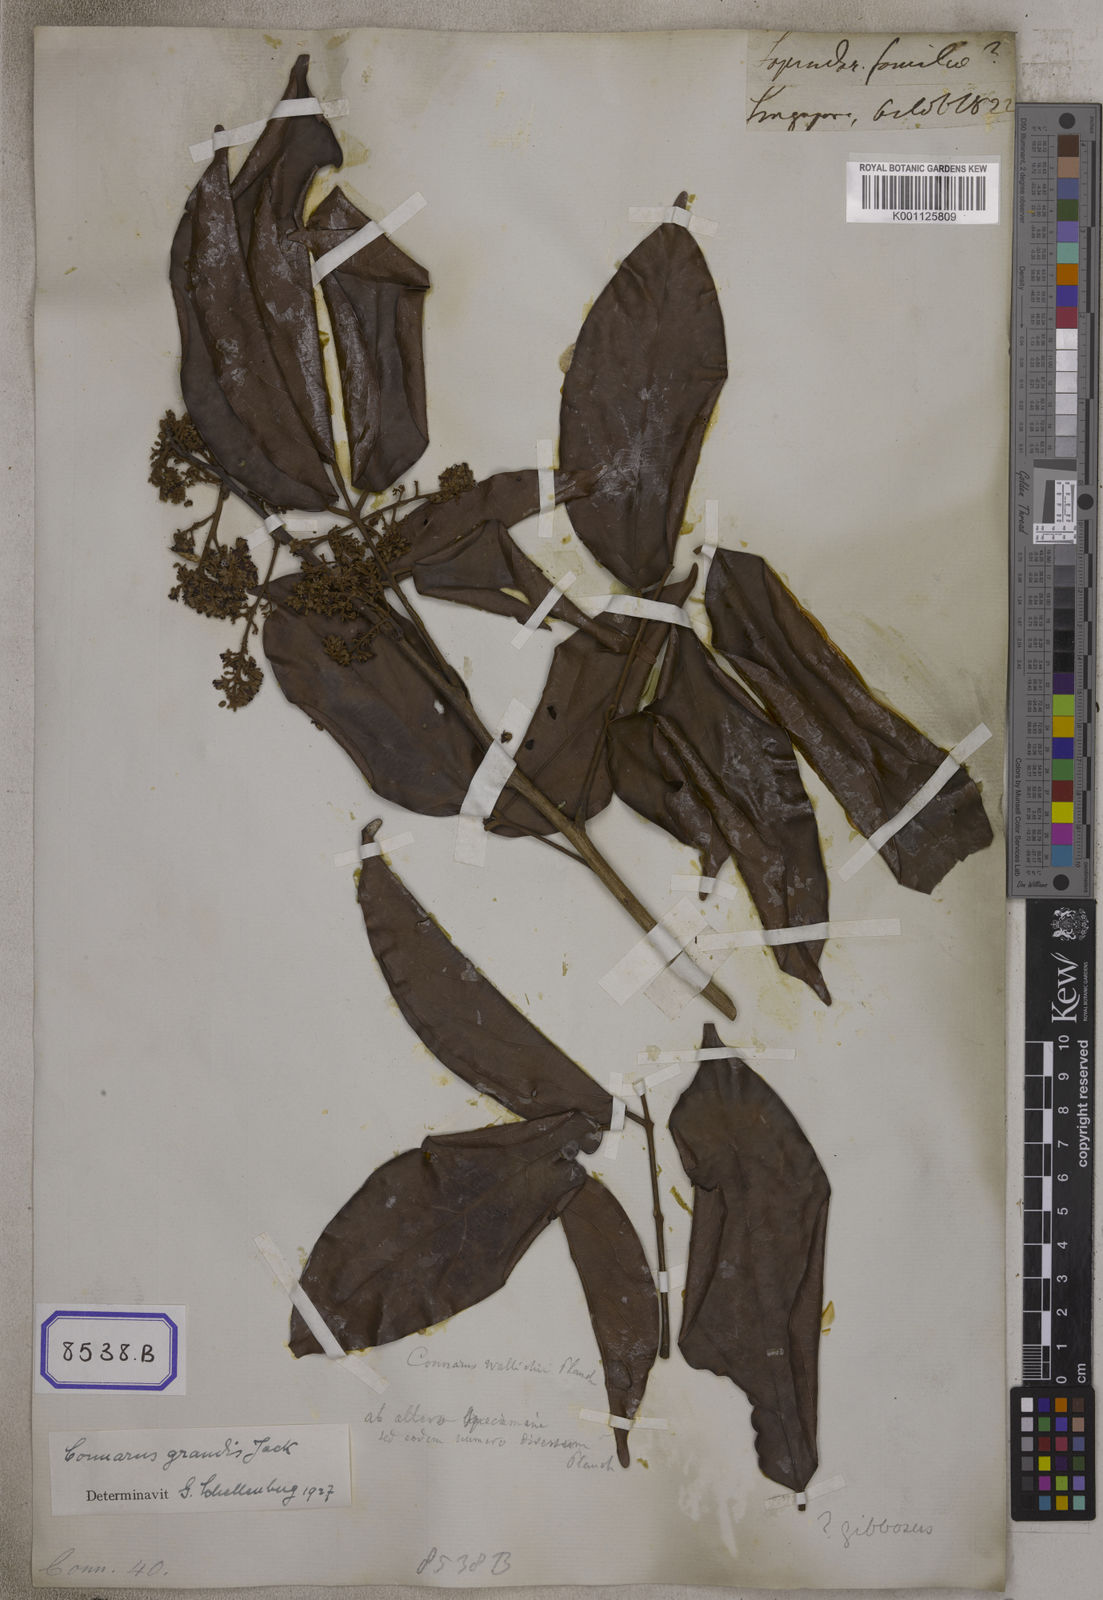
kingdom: Plantae
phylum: Tracheophyta
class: Magnoliopsida
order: Oxalidales
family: Connaraceae
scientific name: Connaraceae
